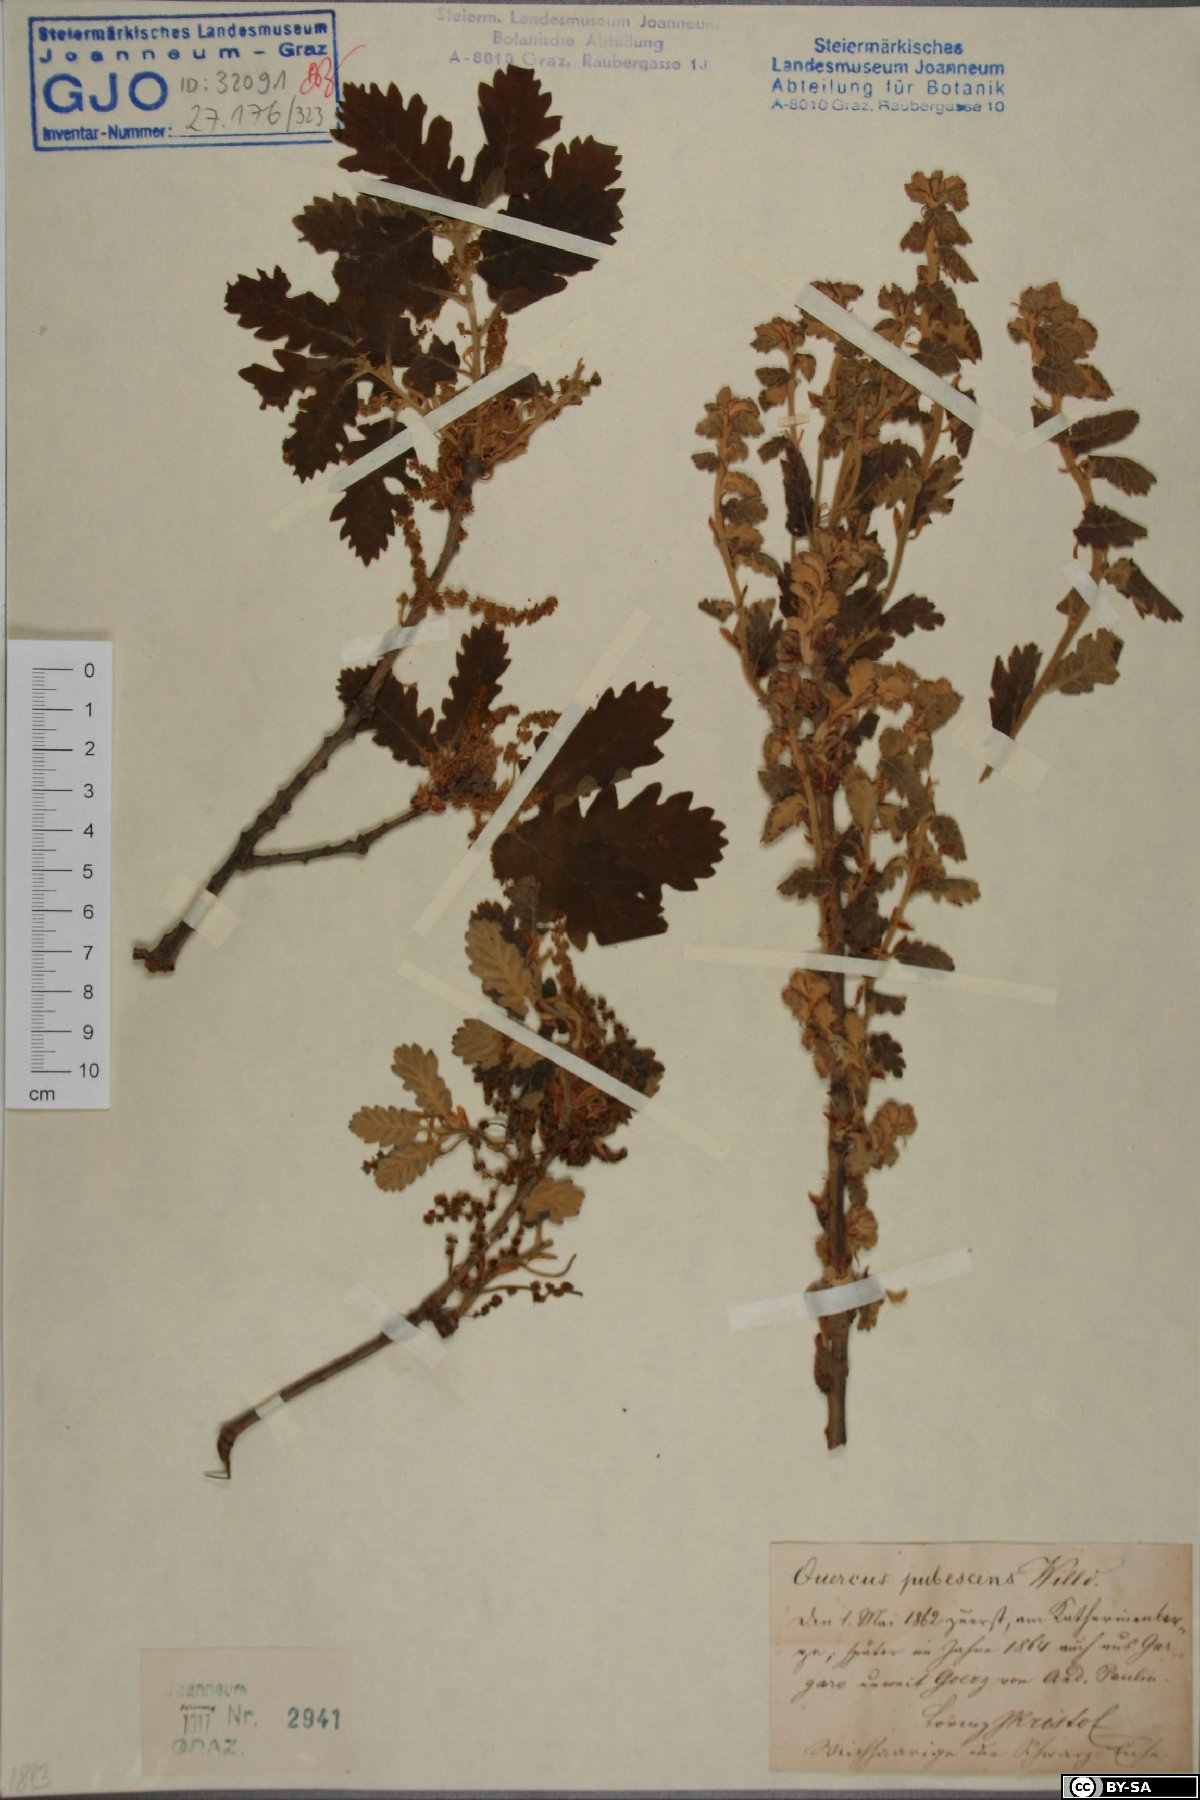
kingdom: Plantae
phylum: Tracheophyta
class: Magnoliopsida
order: Fagales
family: Fagaceae
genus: Quercus
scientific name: Quercus pubescens
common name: Downy oak
